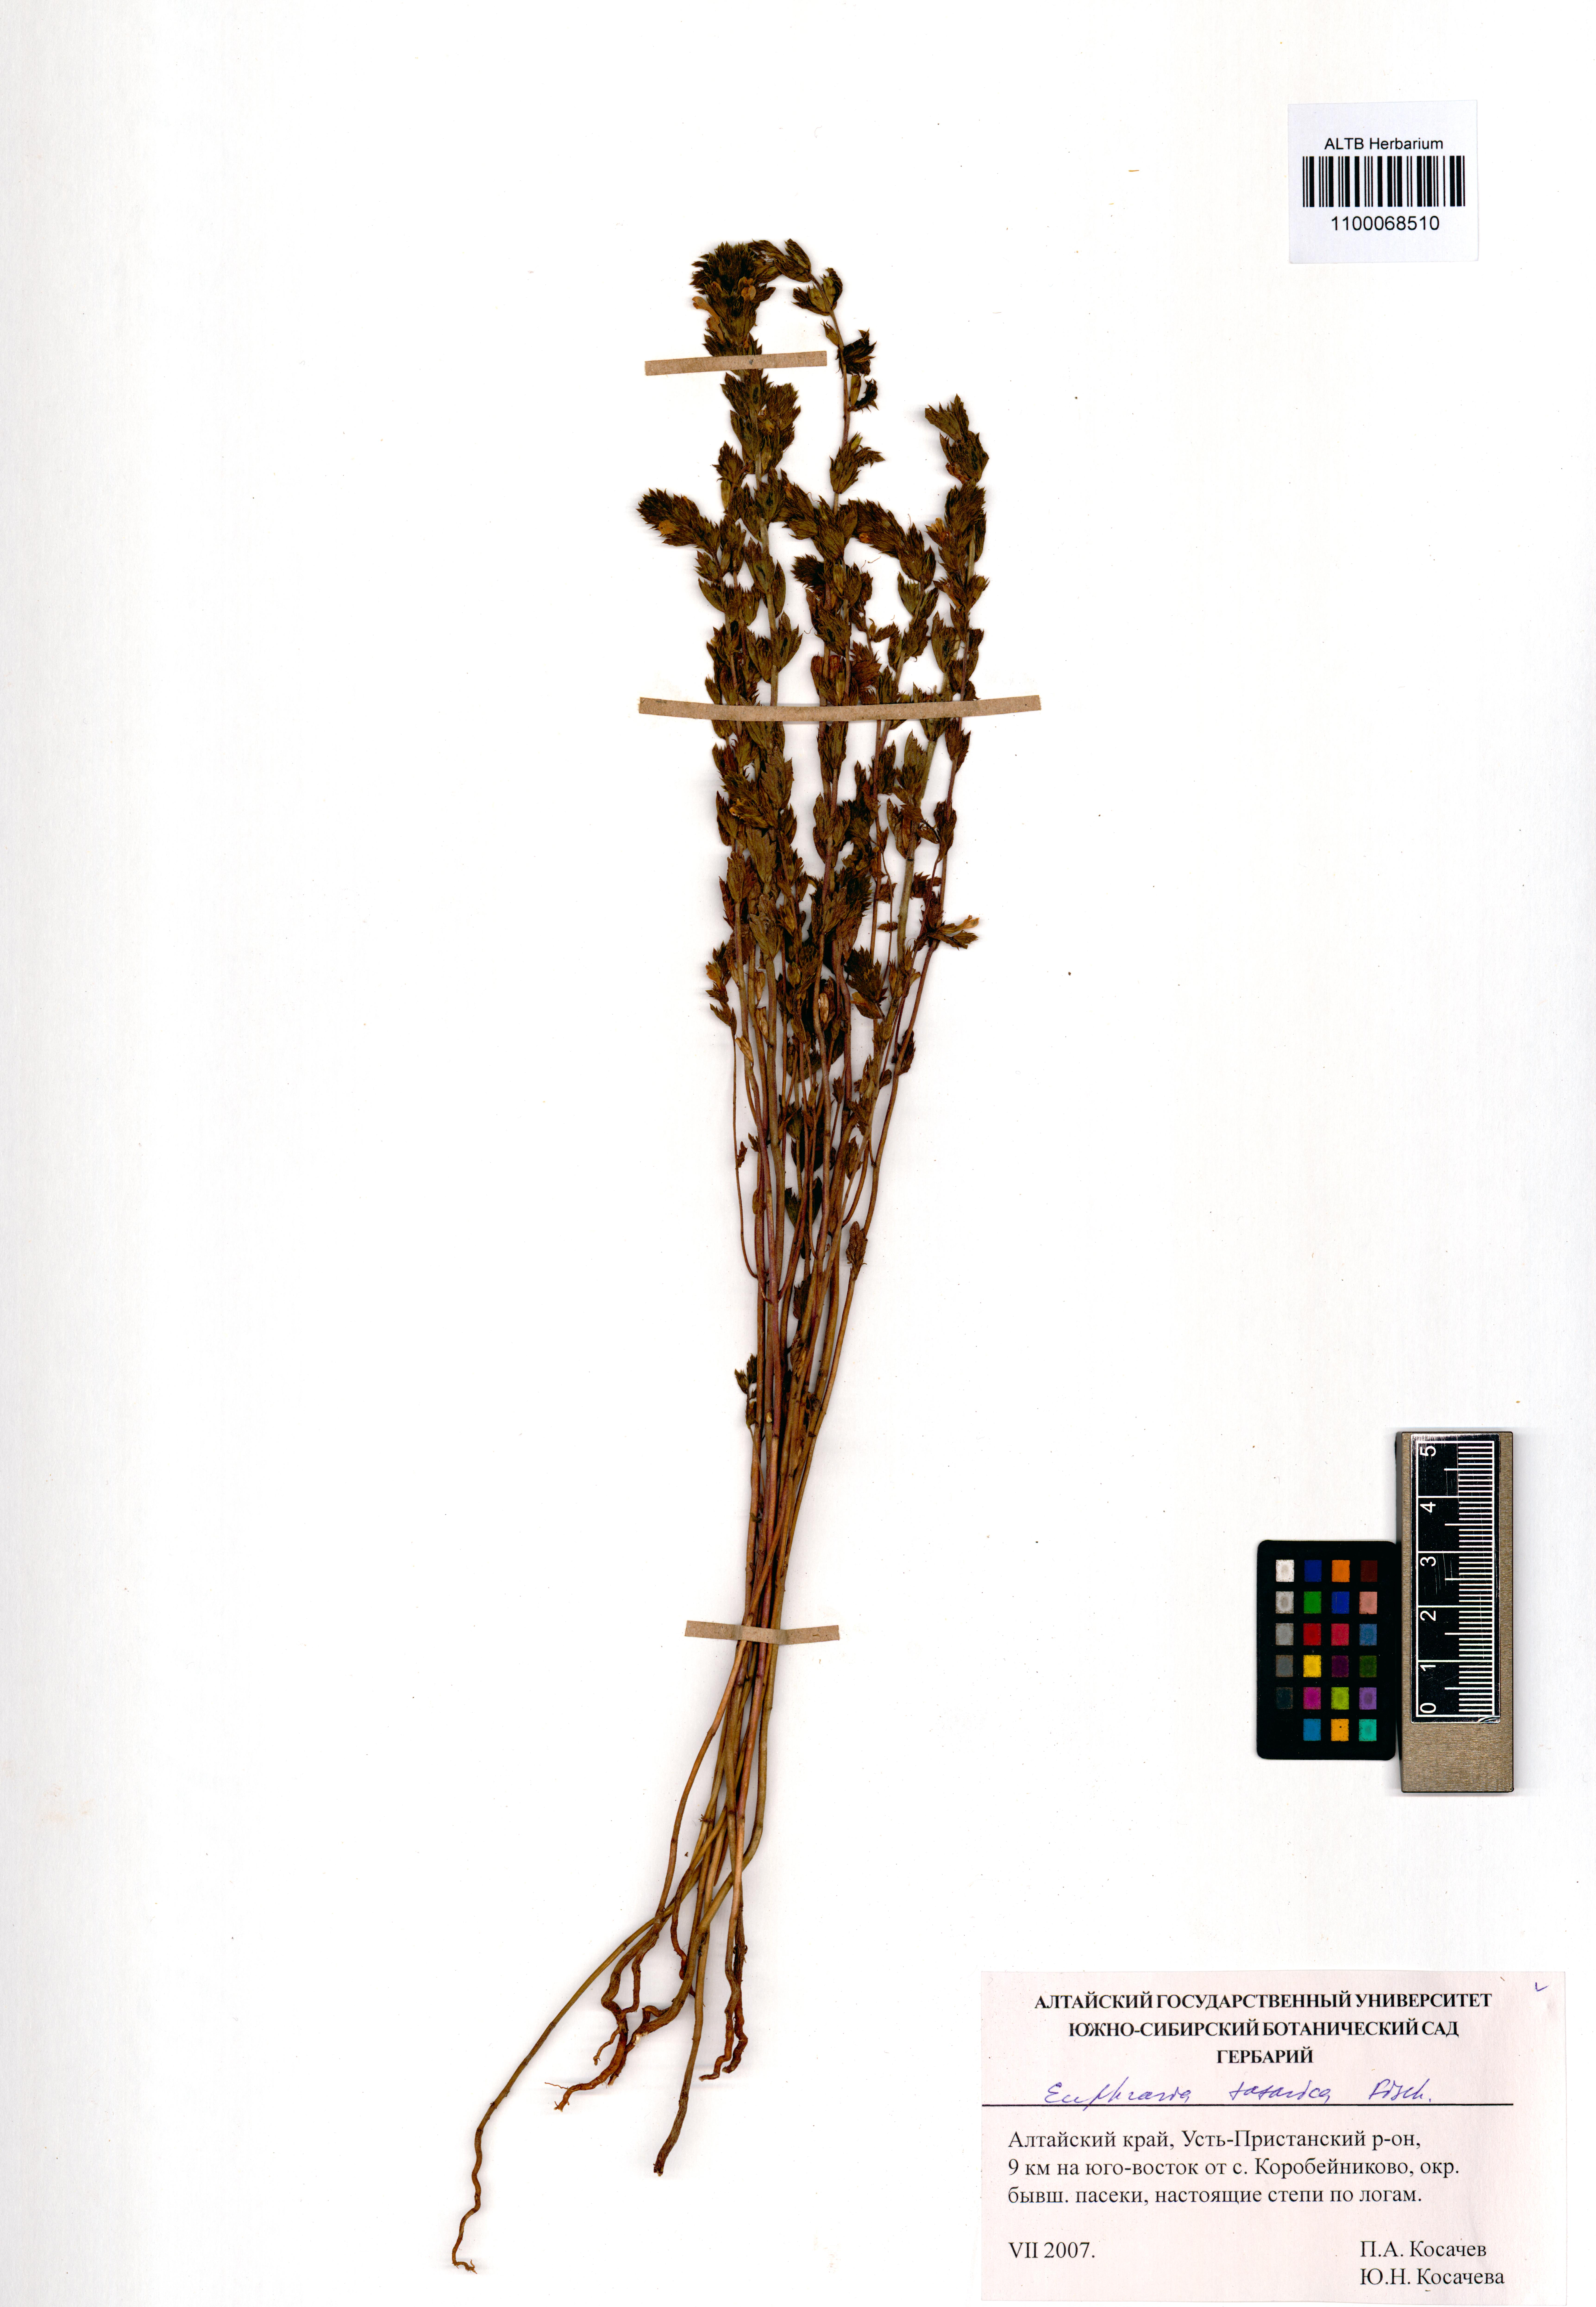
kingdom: Plantae
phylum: Tracheophyta
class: Magnoliopsida
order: Lamiales
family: Orobanchaceae
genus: Euphrasia
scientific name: Euphrasia pectinata
